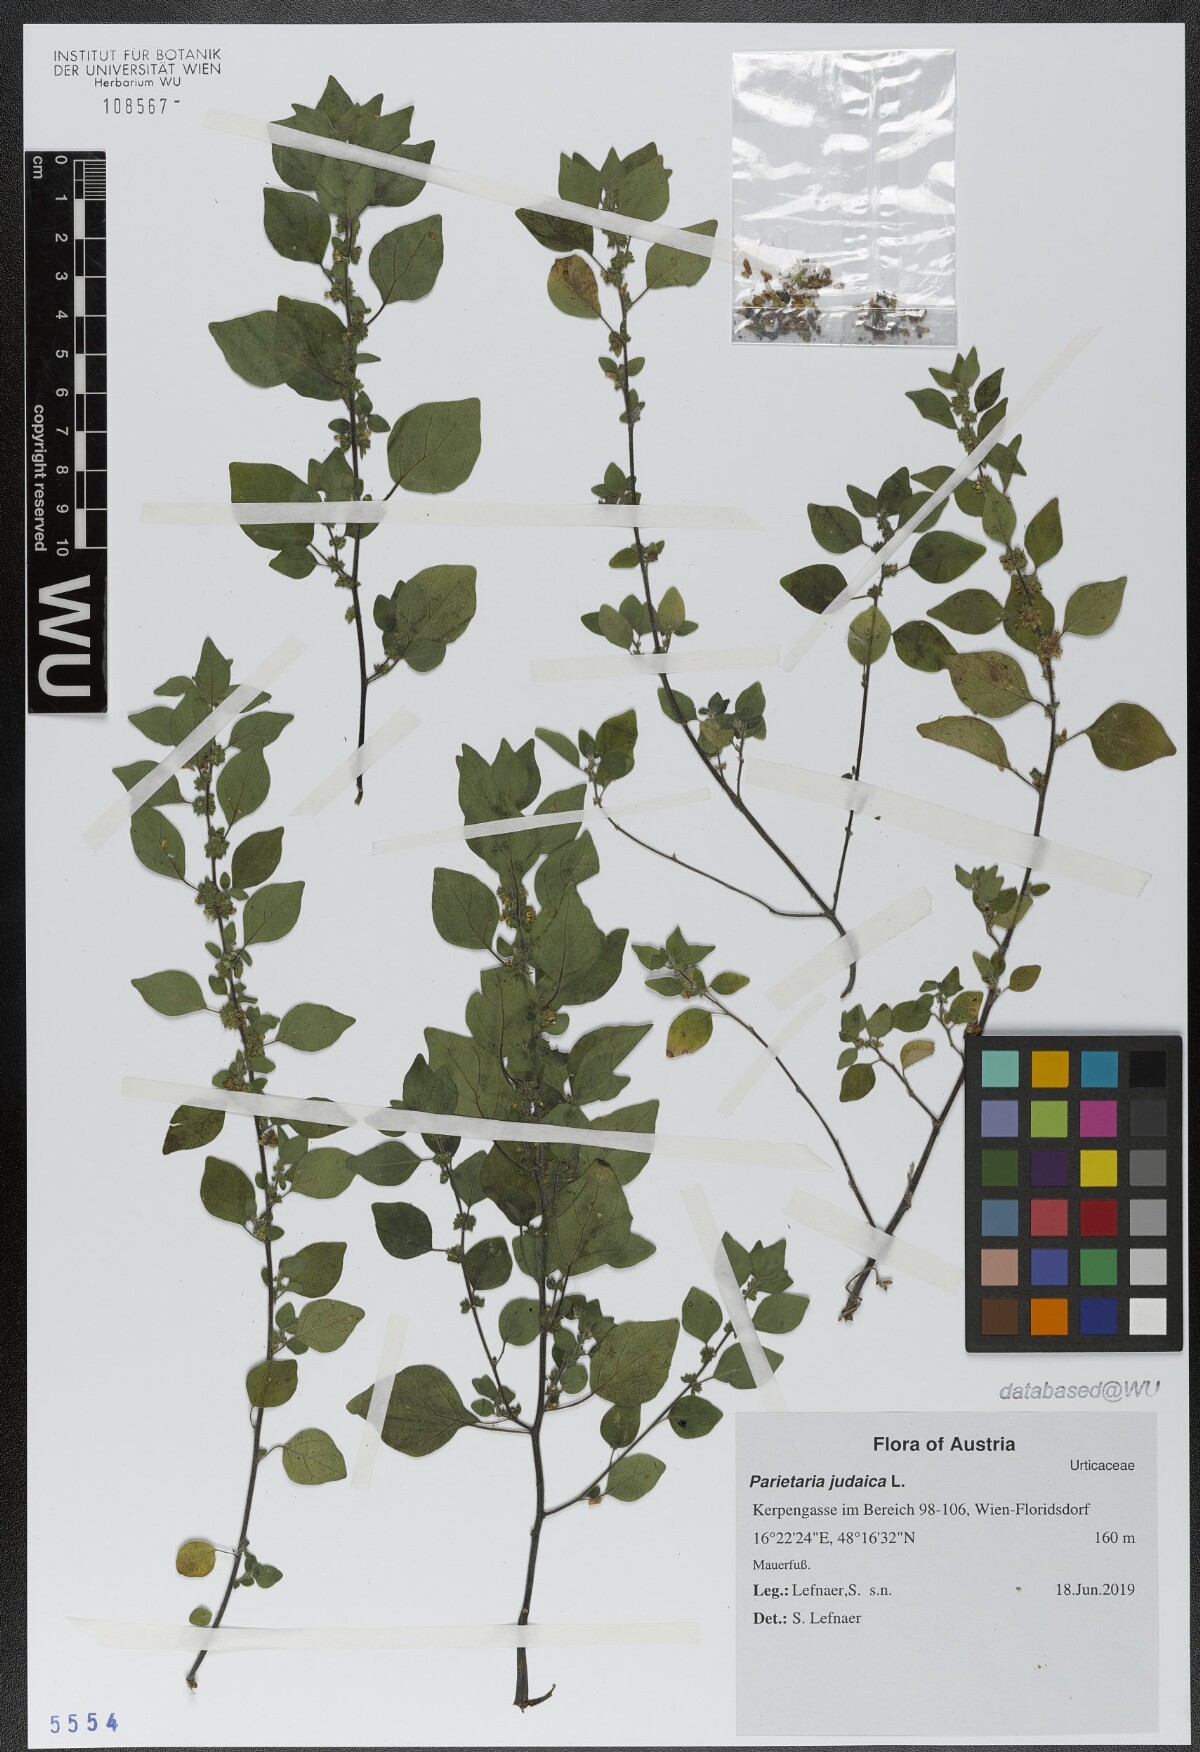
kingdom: Plantae
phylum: Tracheophyta
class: Magnoliopsida
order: Rosales
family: Urticaceae
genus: Parietaria
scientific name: Parietaria judaica
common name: Pellitory-of-the-wall
